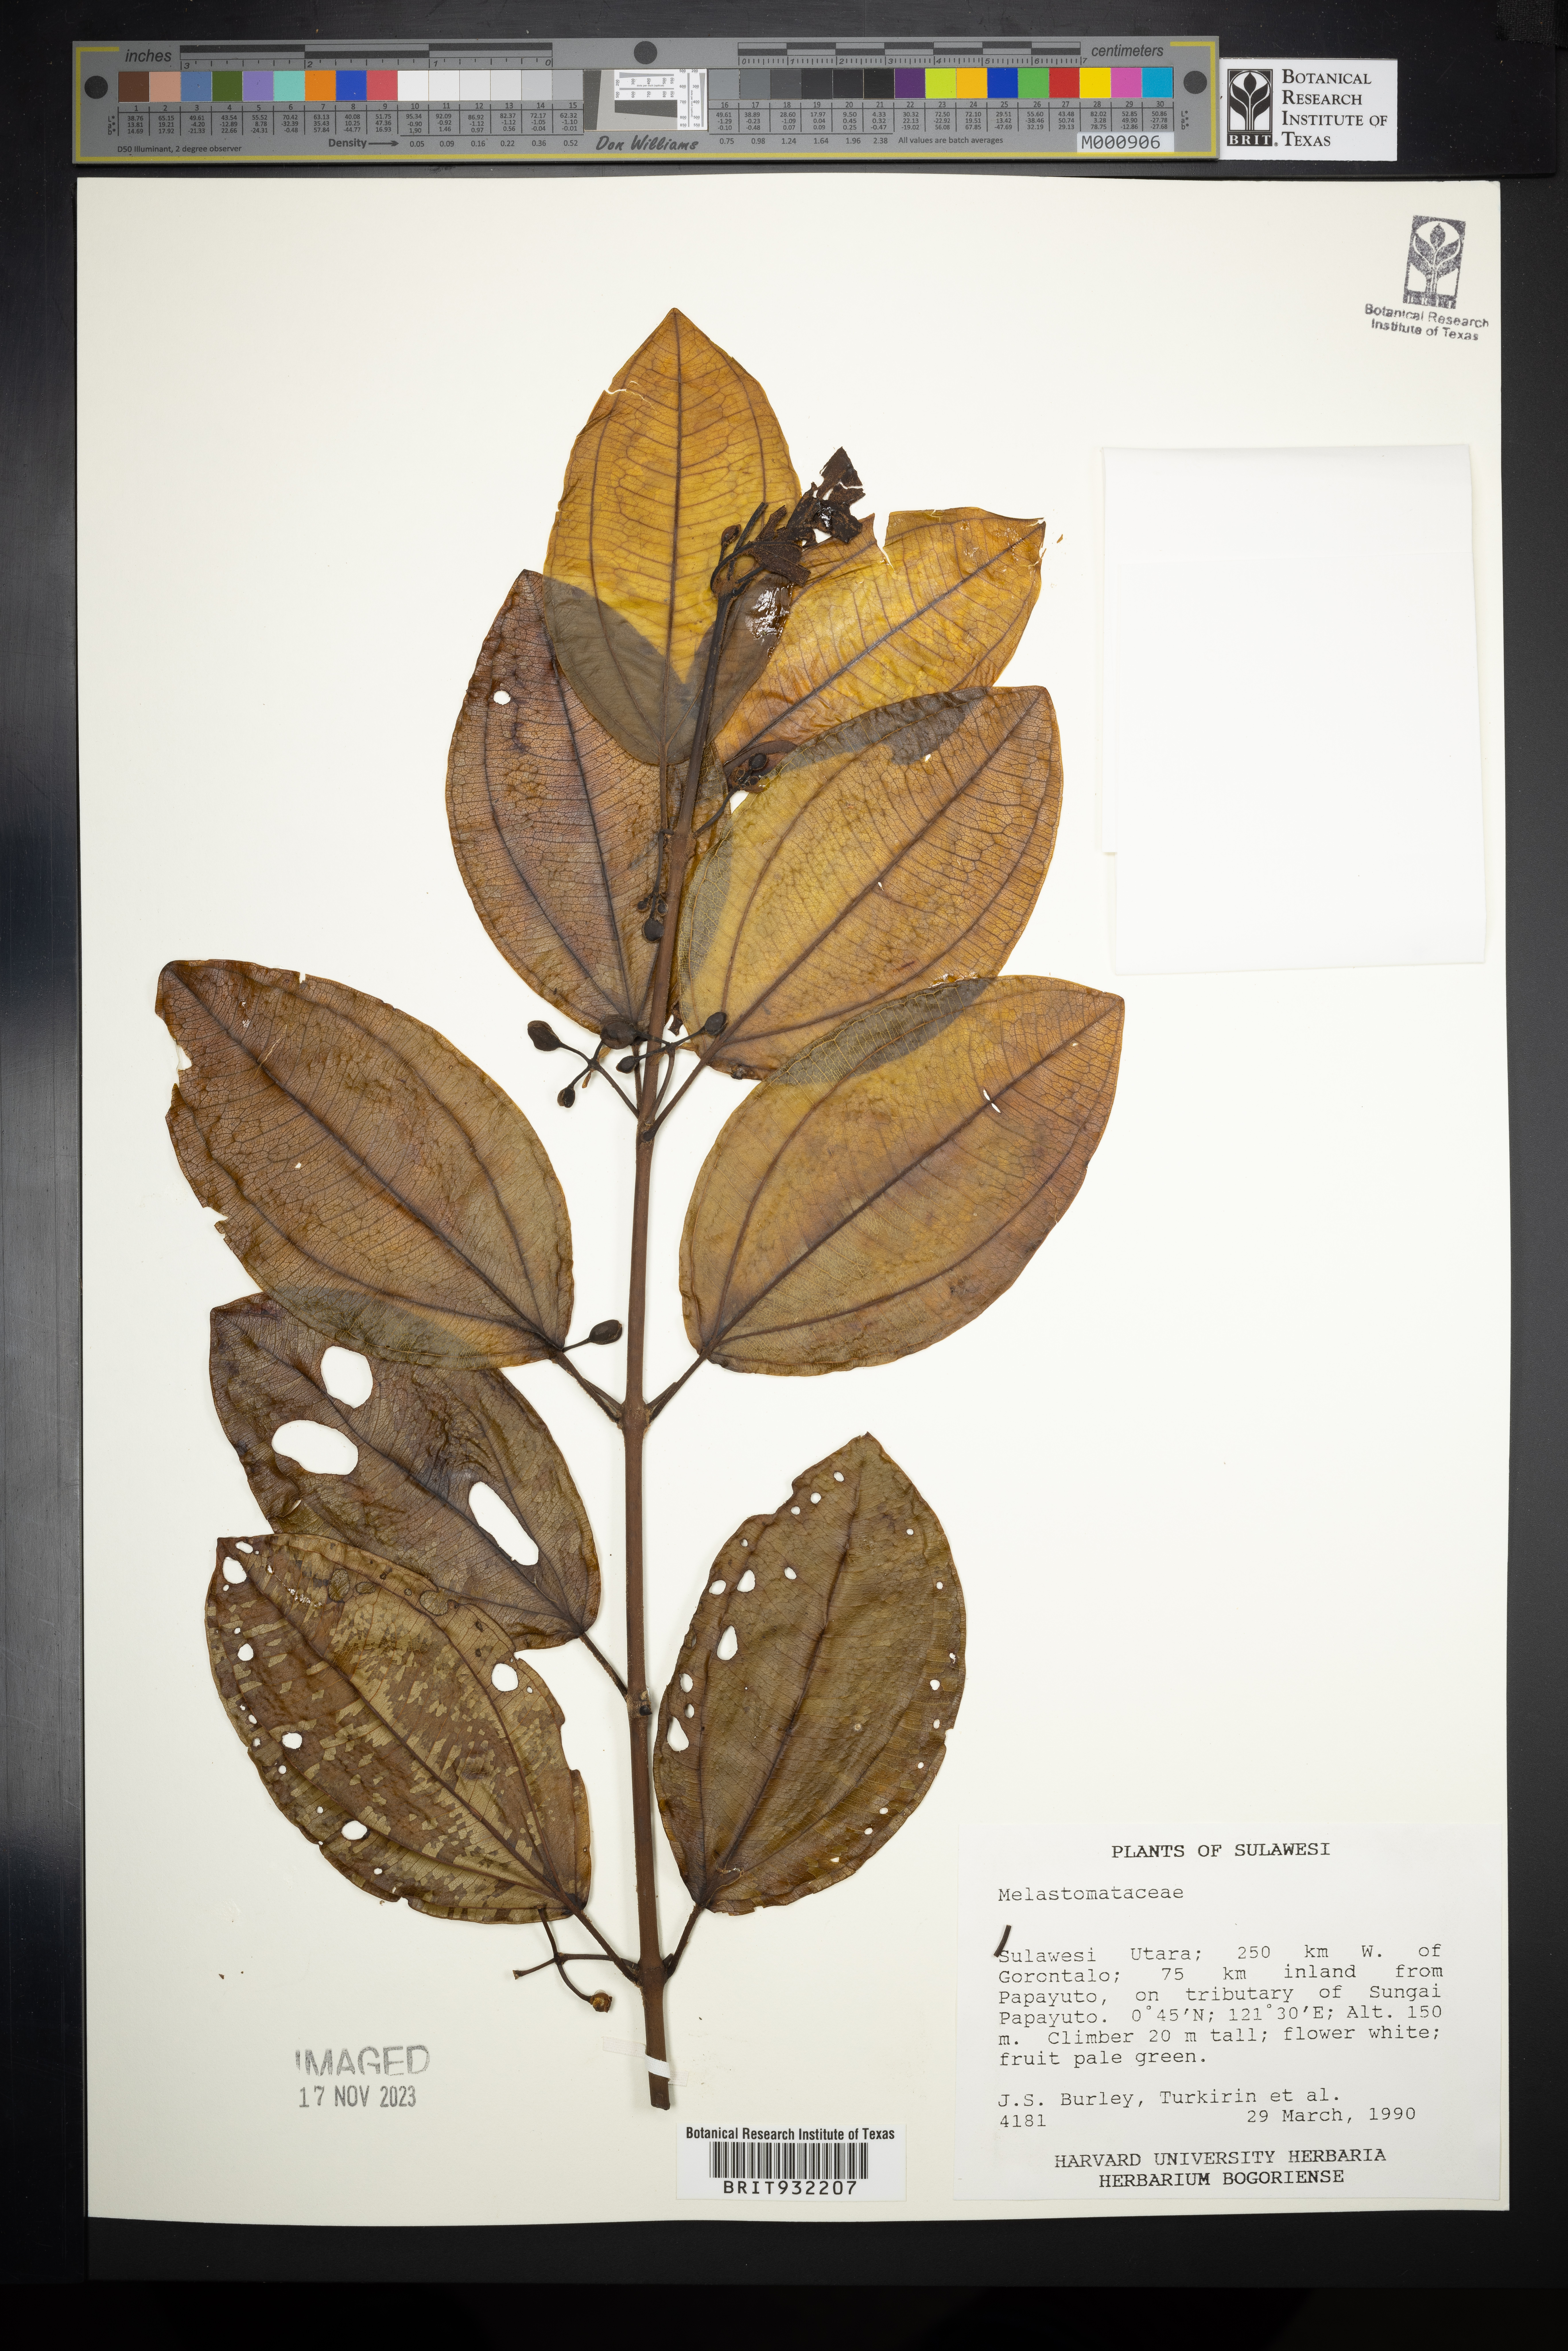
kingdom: Plantae
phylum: Tracheophyta
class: Magnoliopsida
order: Myrtales
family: Melastomataceae
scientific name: Melastomataceae
